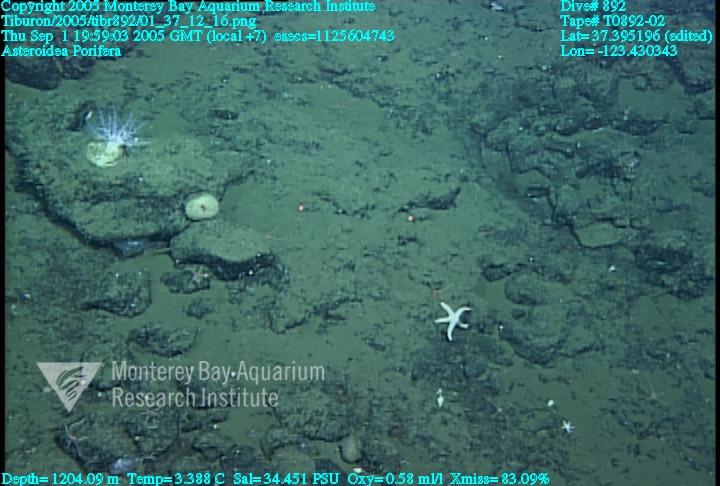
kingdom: Animalia
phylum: Porifera
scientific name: Porifera
